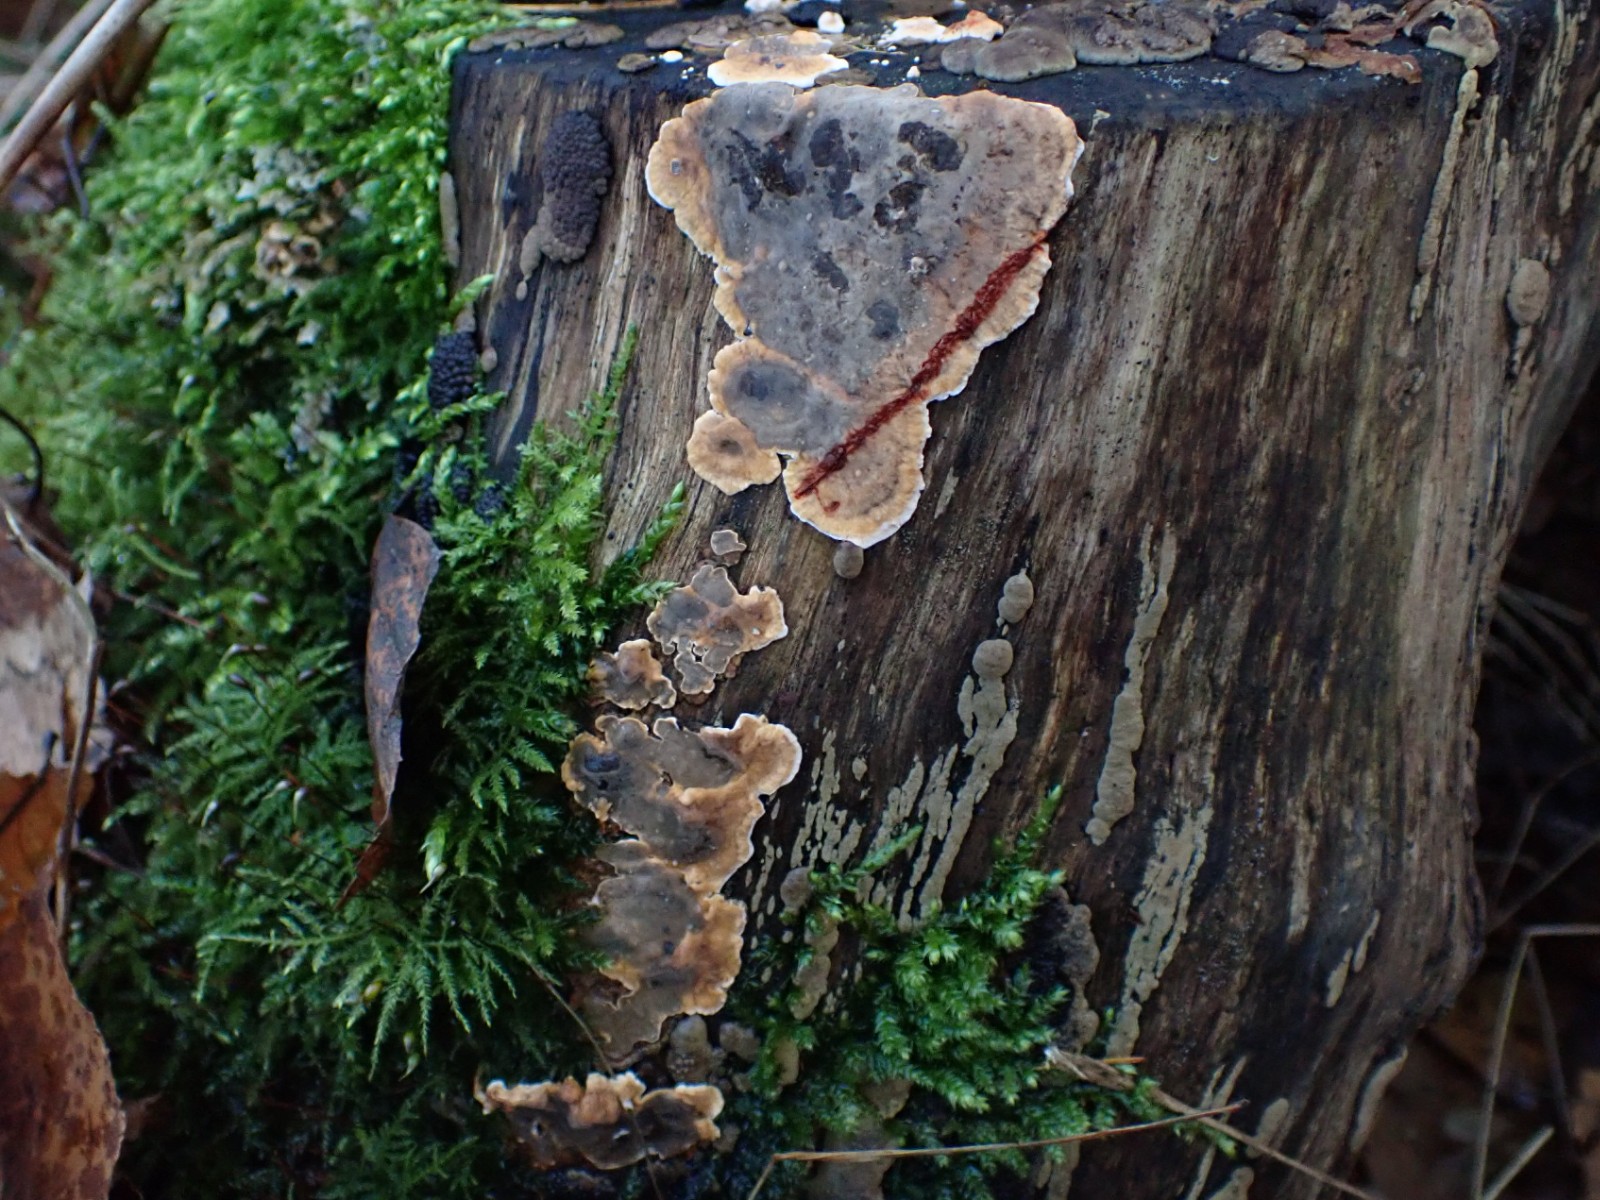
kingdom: Fungi
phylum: Basidiomycota
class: Agaricomycetes
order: Russulales
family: Stereaceae
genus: Stereum
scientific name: Stereum rugosum
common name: rynket lædersvamp
